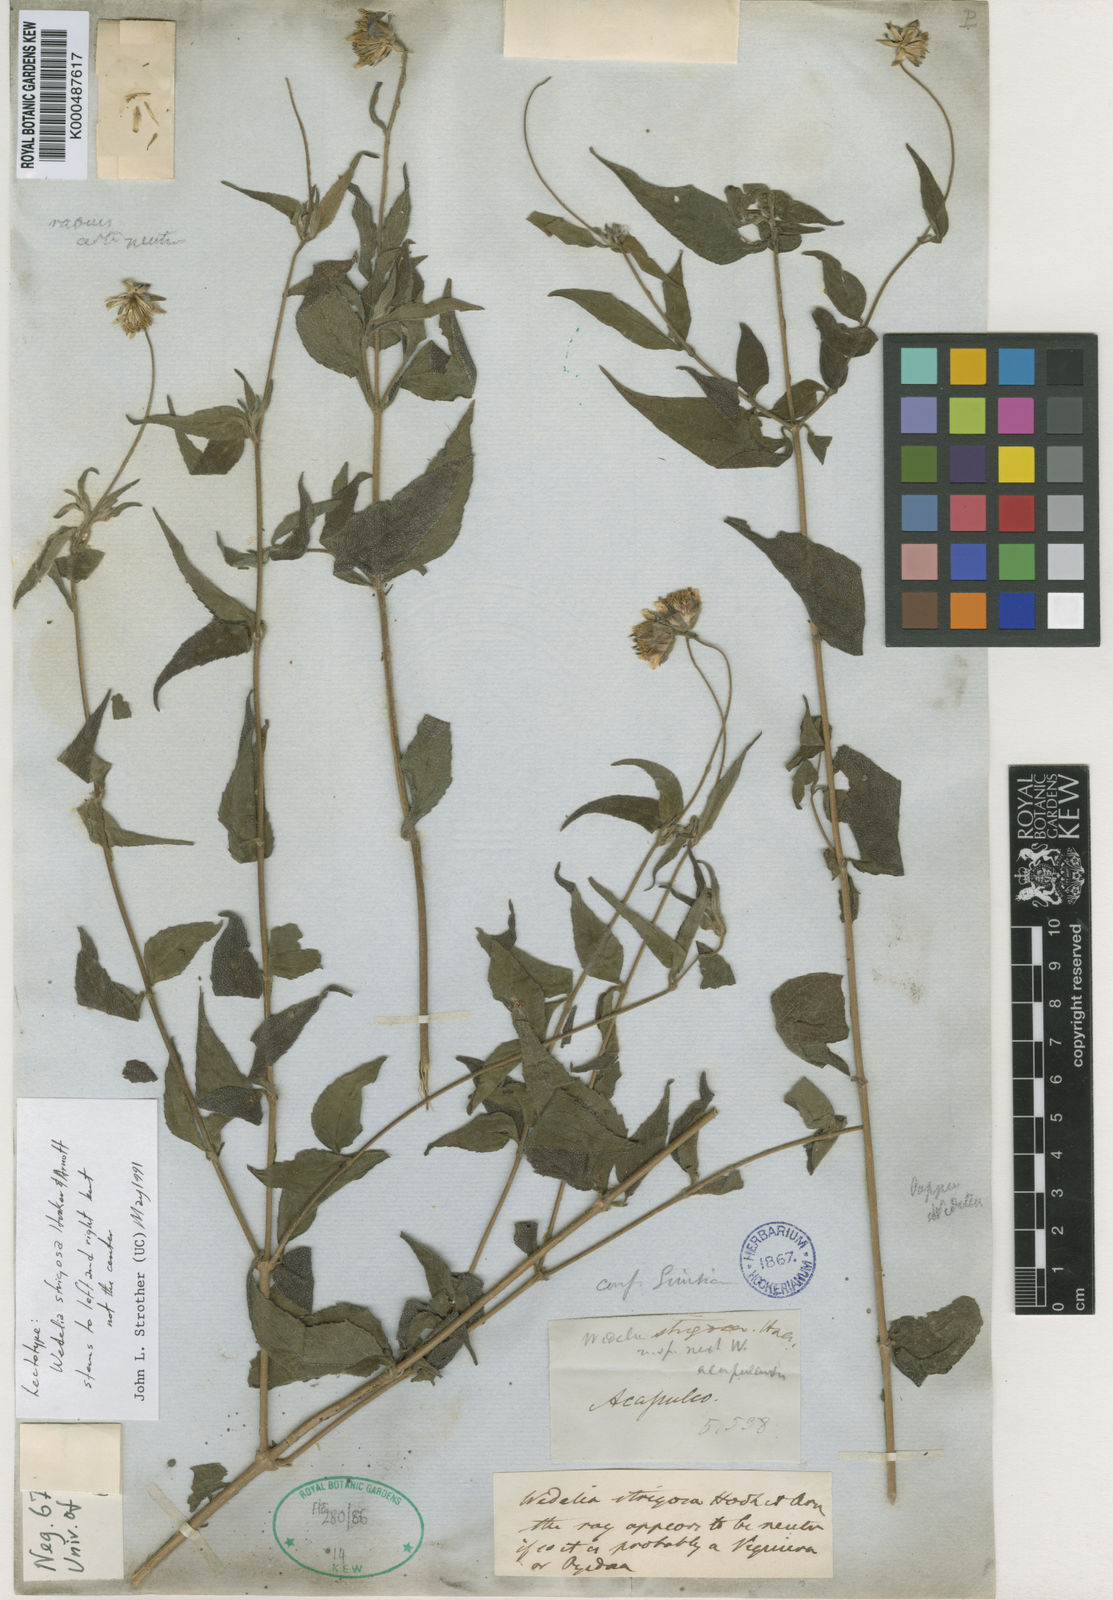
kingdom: Plantae
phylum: Tracheophyta
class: Magnoliopsida
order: Asterales
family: Asteraceae
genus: Wedelia
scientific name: Wedelia strigosa
